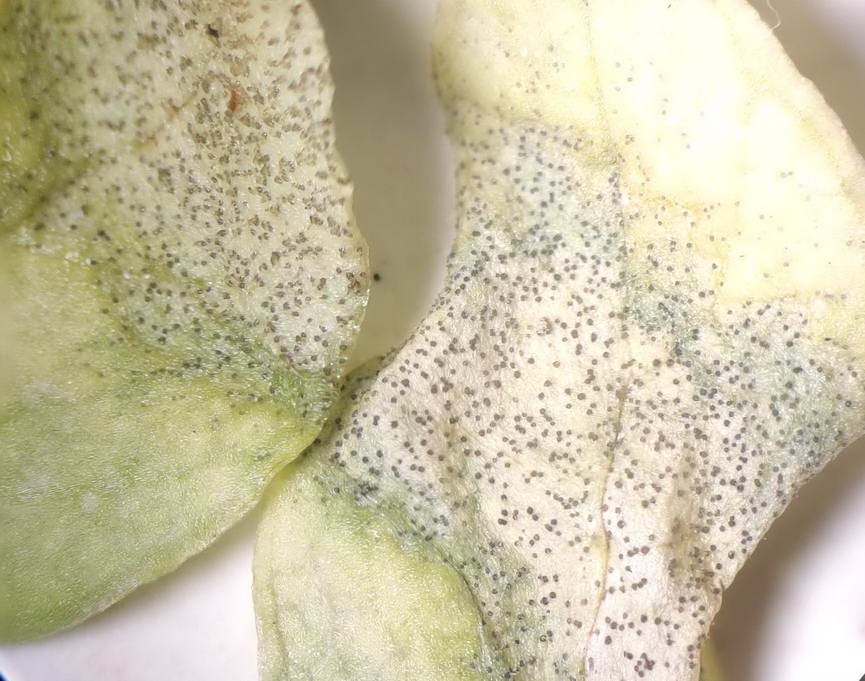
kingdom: Fungi
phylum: Ascomycota
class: Dothideomycetes
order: Mycosphaerellales
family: Mycosphaerellaceae
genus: Septoria
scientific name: Septoria stellariae
